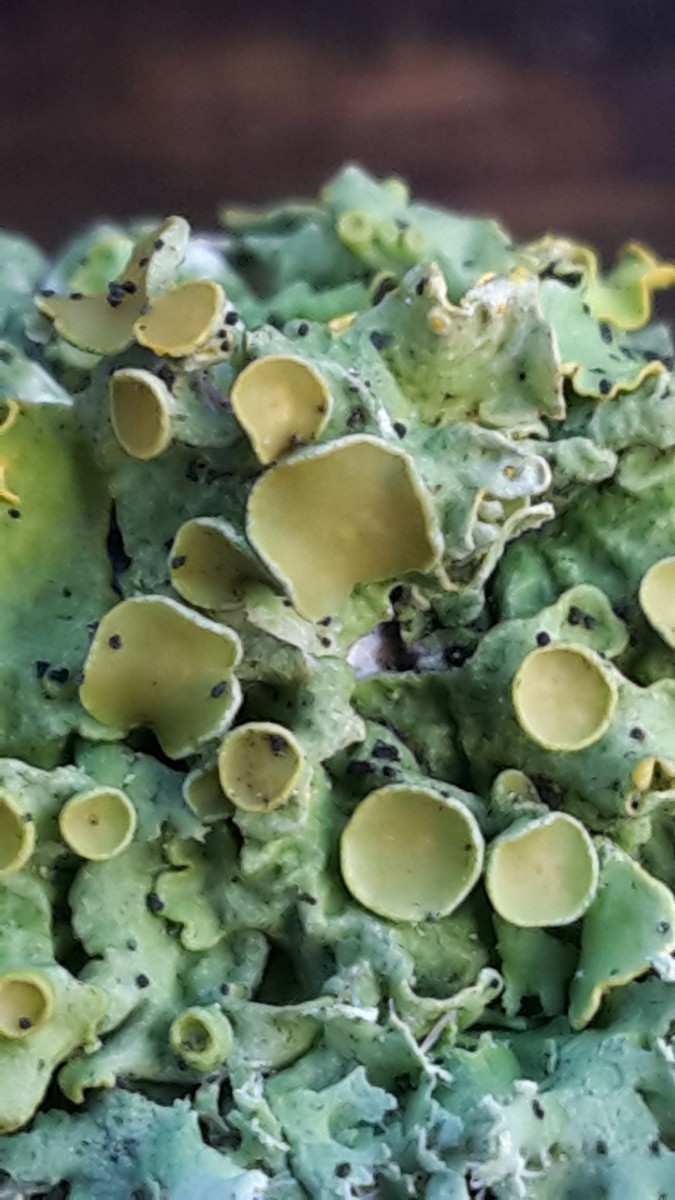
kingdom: Fungi
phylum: Ascomycota
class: Lecanoromycetes
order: Teloschistales
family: Teloschistaceae
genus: Xanthoria
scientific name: Xanthoria parietina
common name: almindelig væggelav
